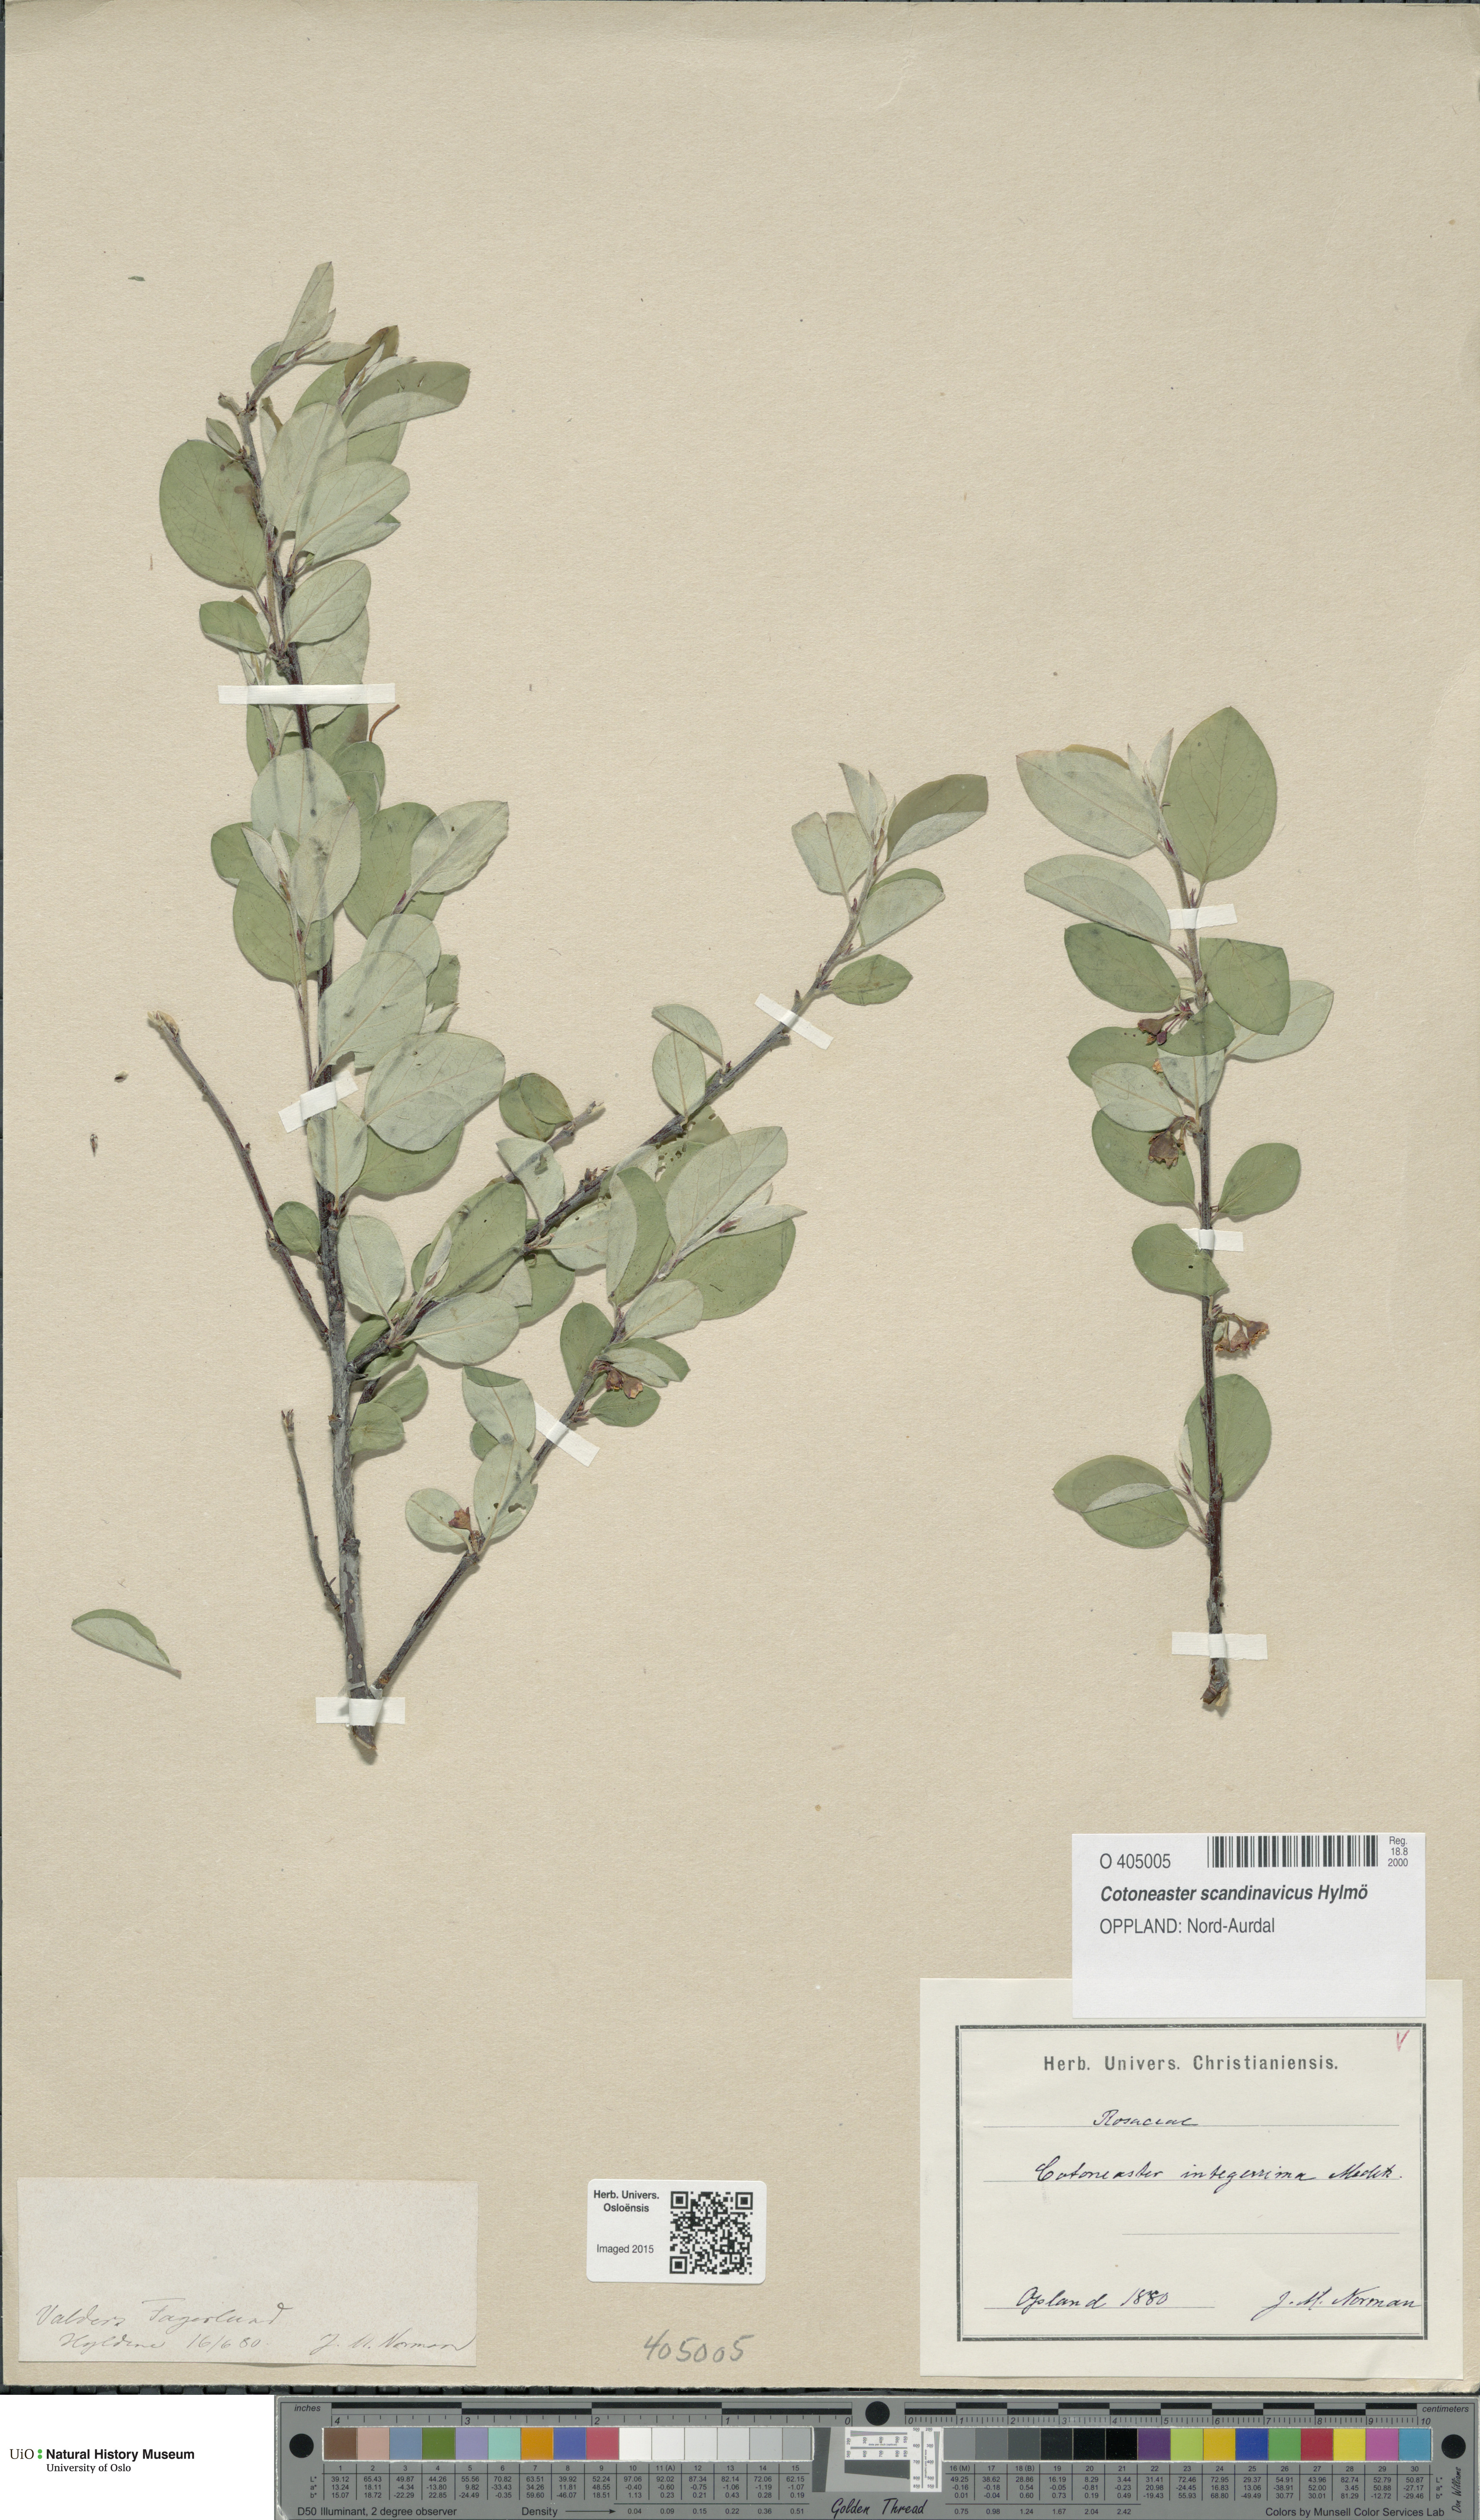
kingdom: Plantae
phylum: Tracheophyta
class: Magnoliopsida
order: Rosales
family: Rosaceae
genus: Cotoneaster
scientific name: Cotoneaster integerrimus
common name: Wild cotoneaster
